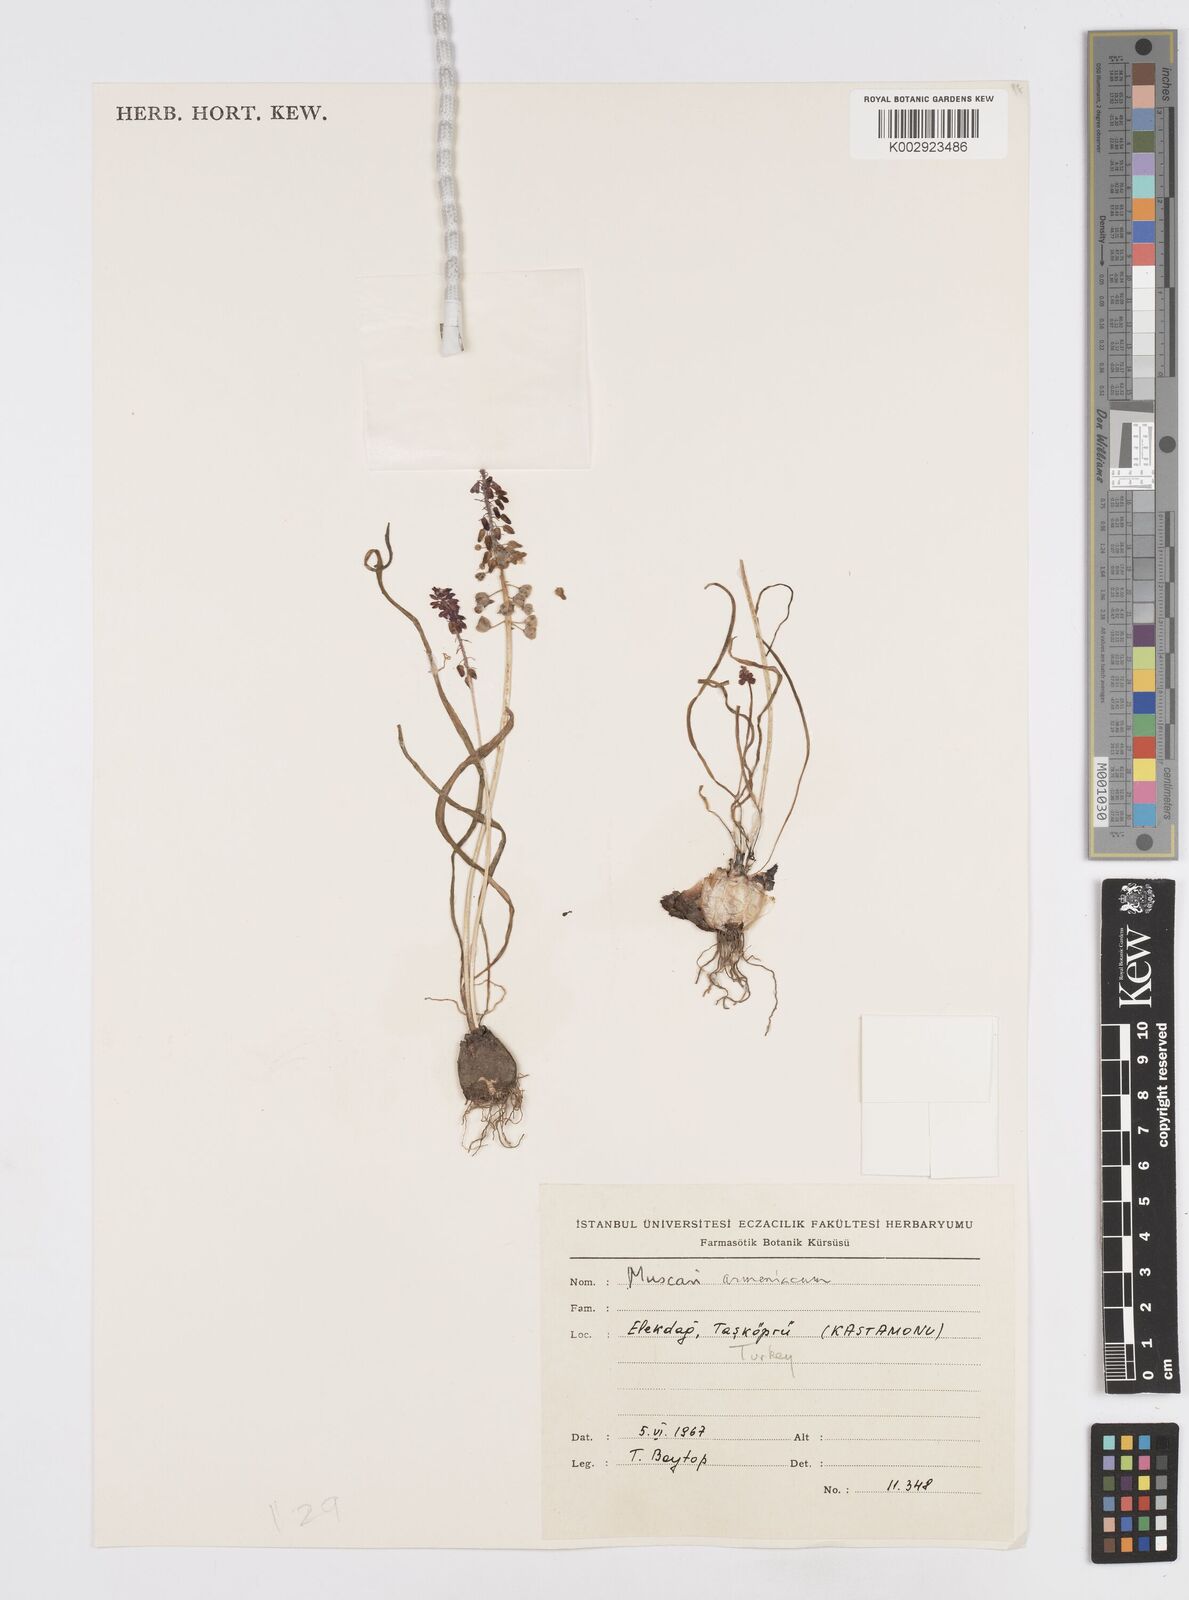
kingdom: Plantae
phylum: Tracheophyta
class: Liliopsida
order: Asparagales
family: Asparagaceae
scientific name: Asparagaceae
